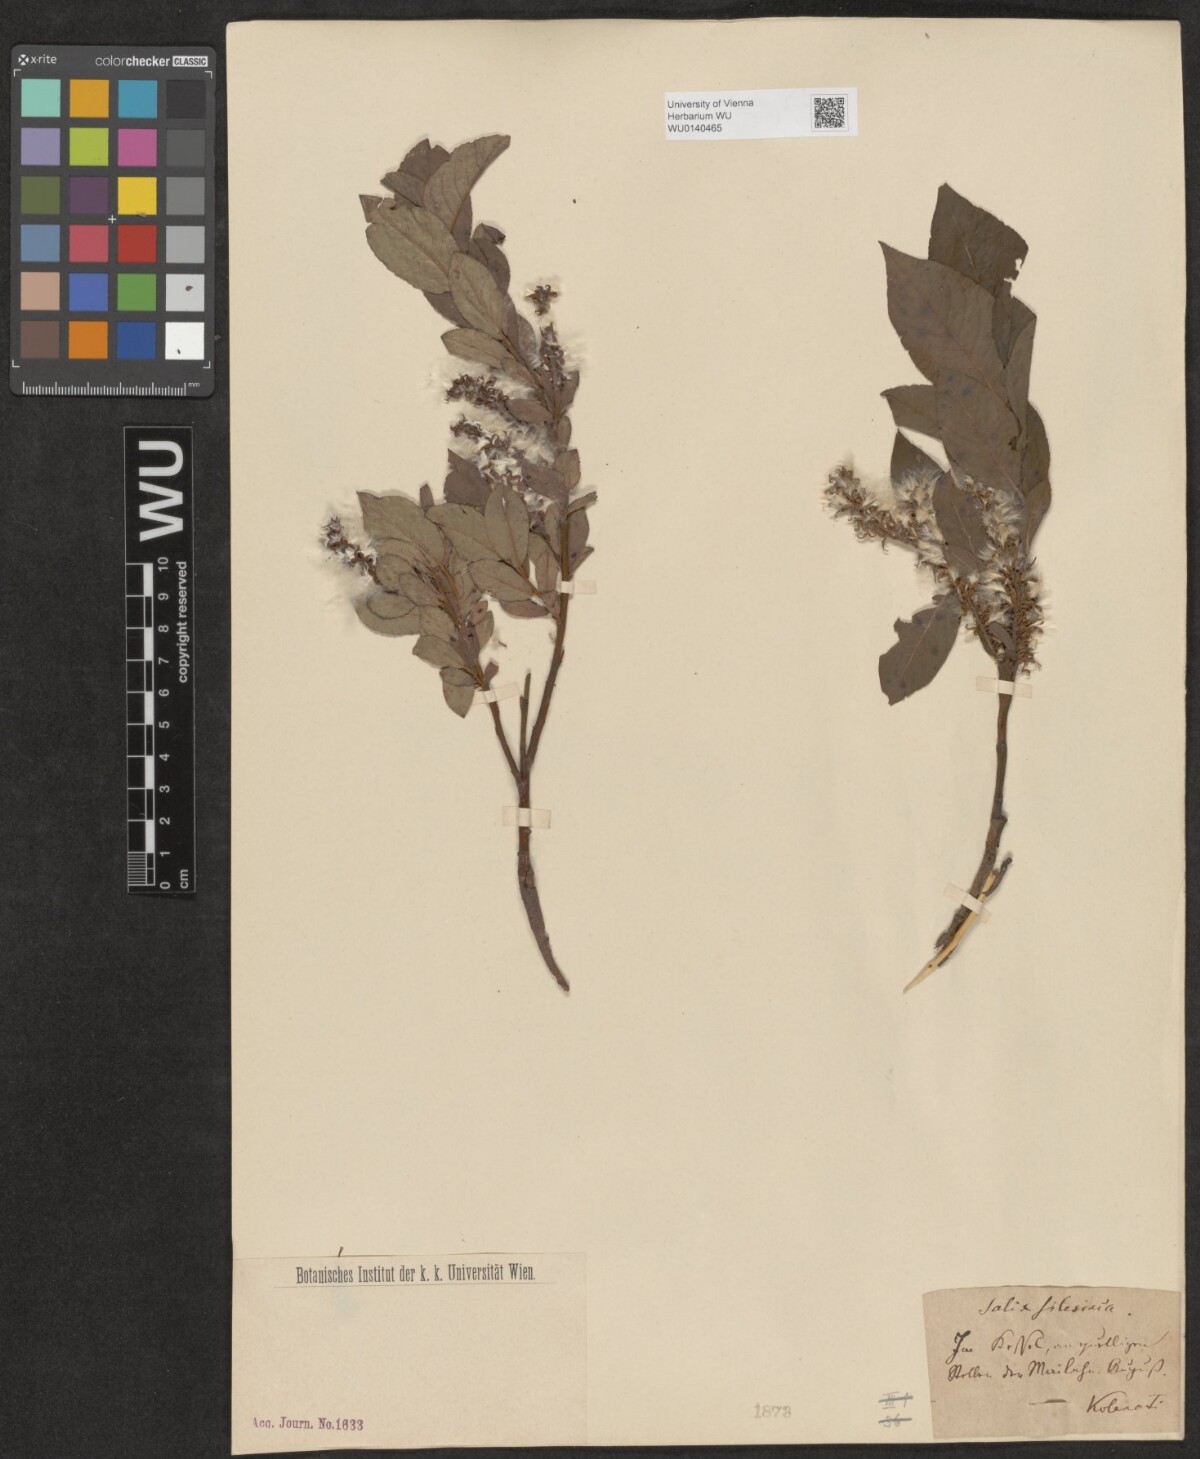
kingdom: Plantae
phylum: Tracheophyta
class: Magnoliopsida
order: Malpighiales
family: Salicaceae
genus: Salix
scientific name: Salix silesiaca
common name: Silesian willow
